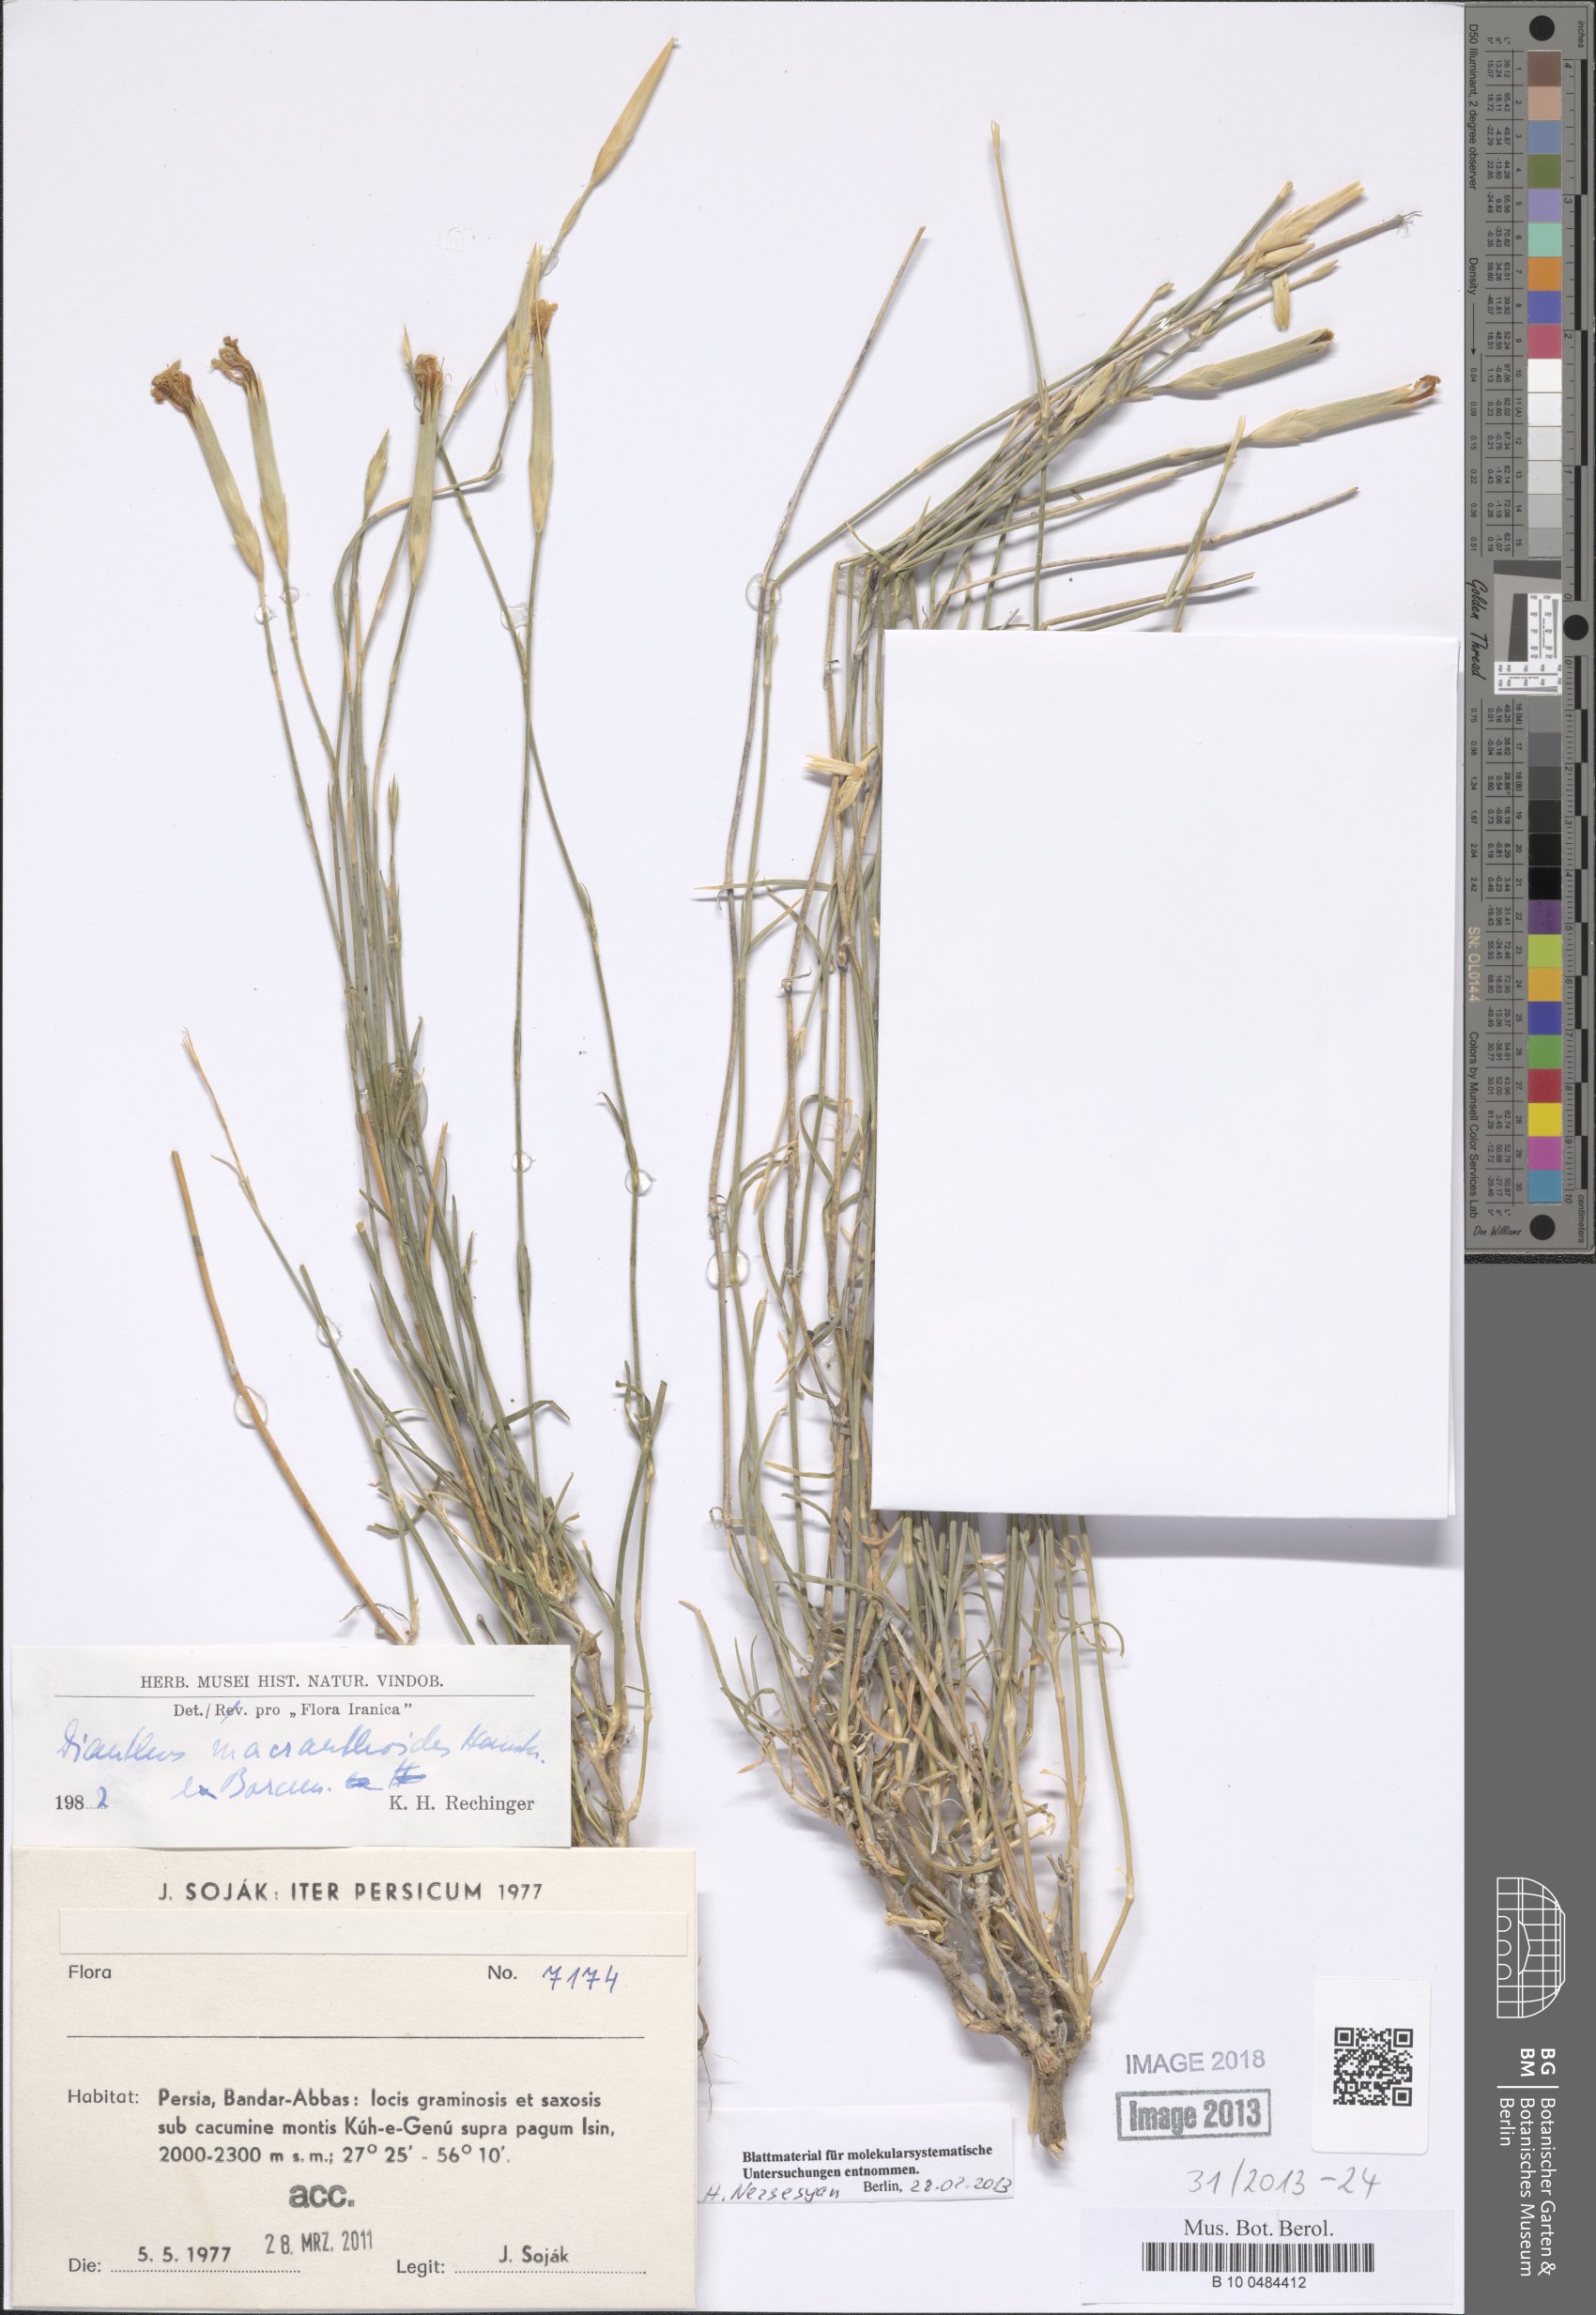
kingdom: Plantae
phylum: Tracheophyta
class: Magnoliopsida
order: Caryophyllales
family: Caryophyllaceae
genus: Dianthus
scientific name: Dianthus macranthoides
